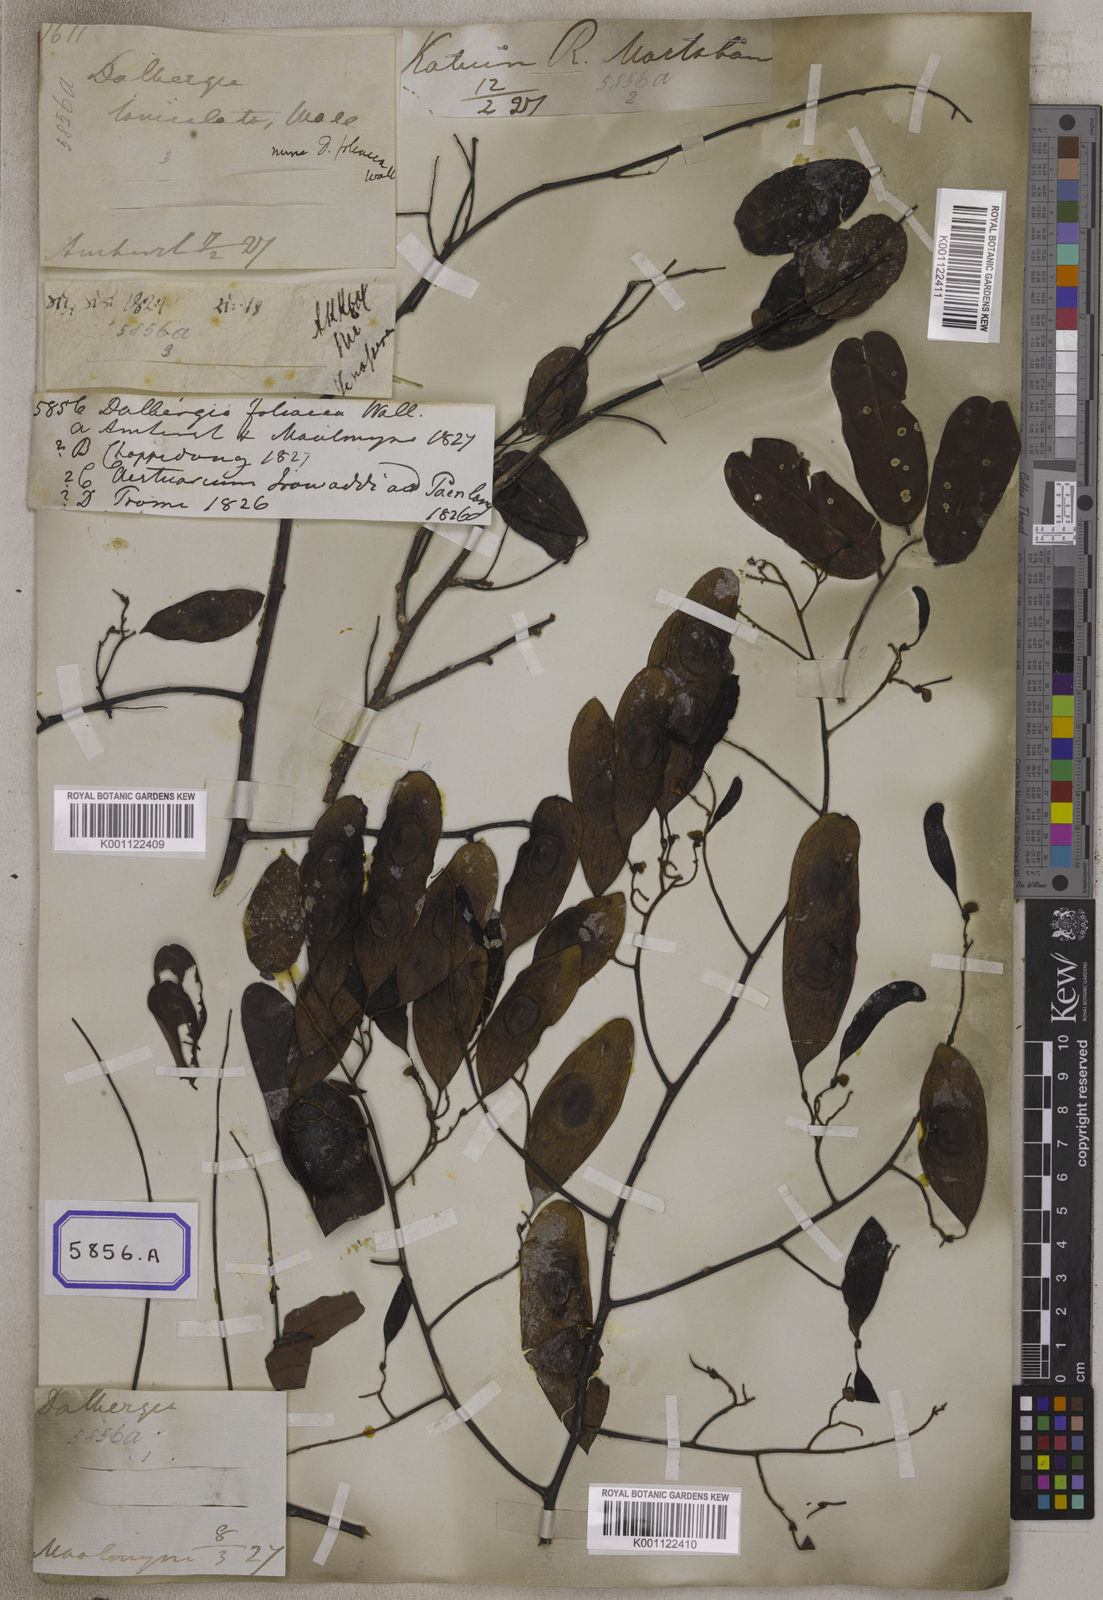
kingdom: Plantae
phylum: Tracheophyta
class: Magnoliopsida
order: Fabales
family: Fabaceae
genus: Dalbergia
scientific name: Dalbergia
